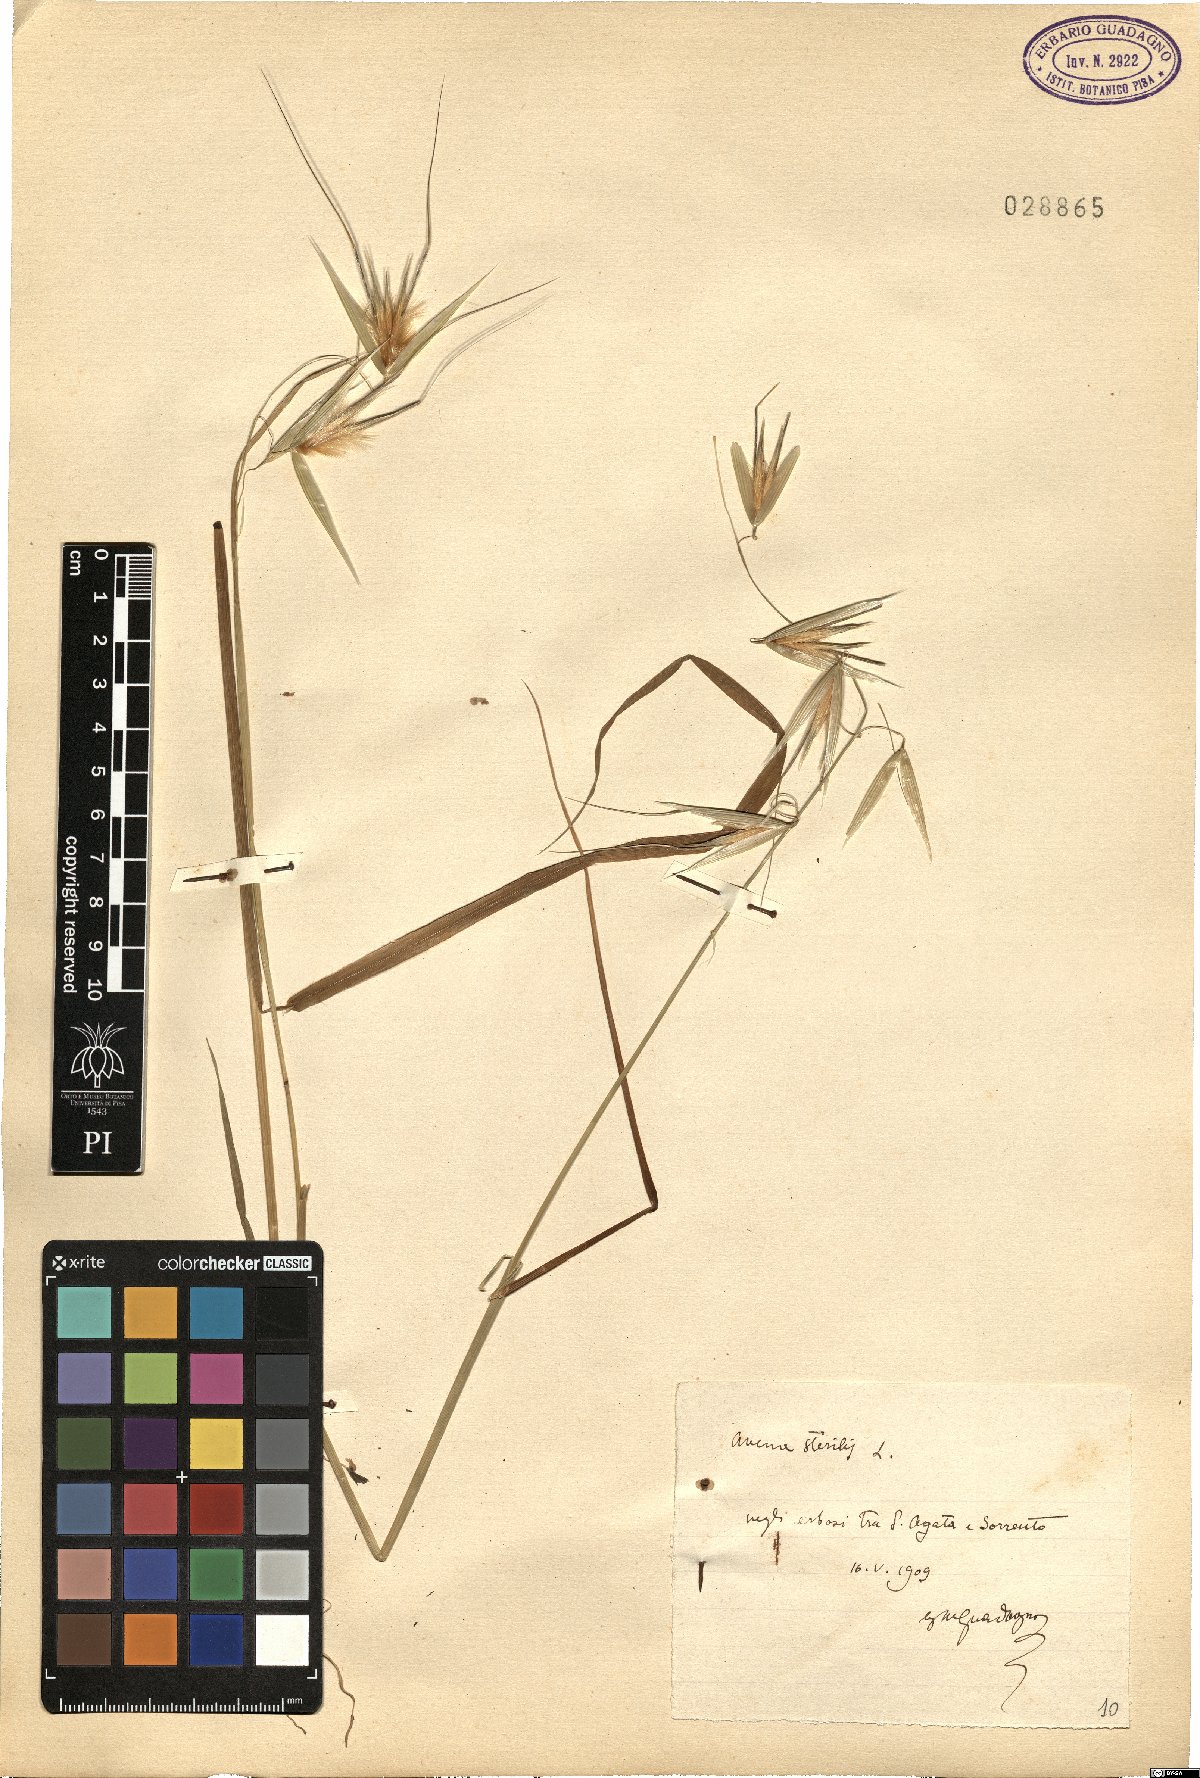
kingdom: Plantae
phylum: Tracheophyta
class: Liliopsida
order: Poales
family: Poaceae
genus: Avena
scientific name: Avena sterilis
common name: Animated oat
